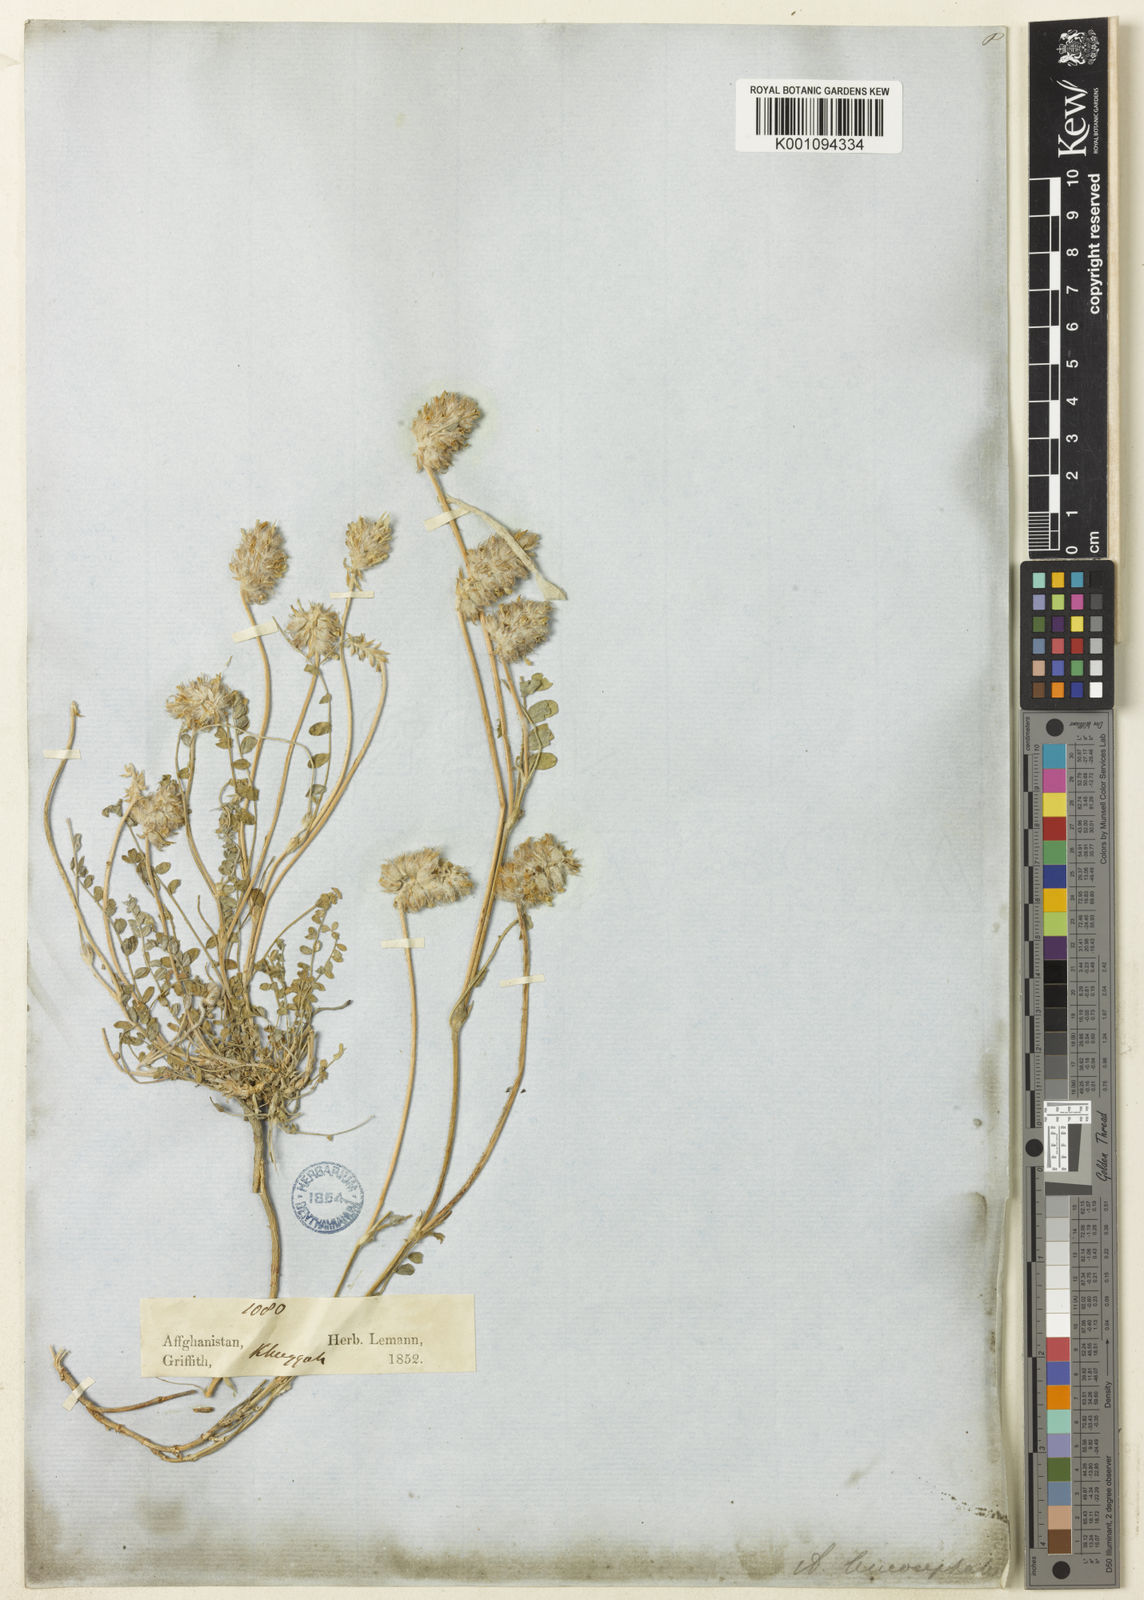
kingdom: Plantae
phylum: Tracheophyta
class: Magnoliopsida
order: Fabales
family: Fabaceae
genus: Astragalus
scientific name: Astragalus
